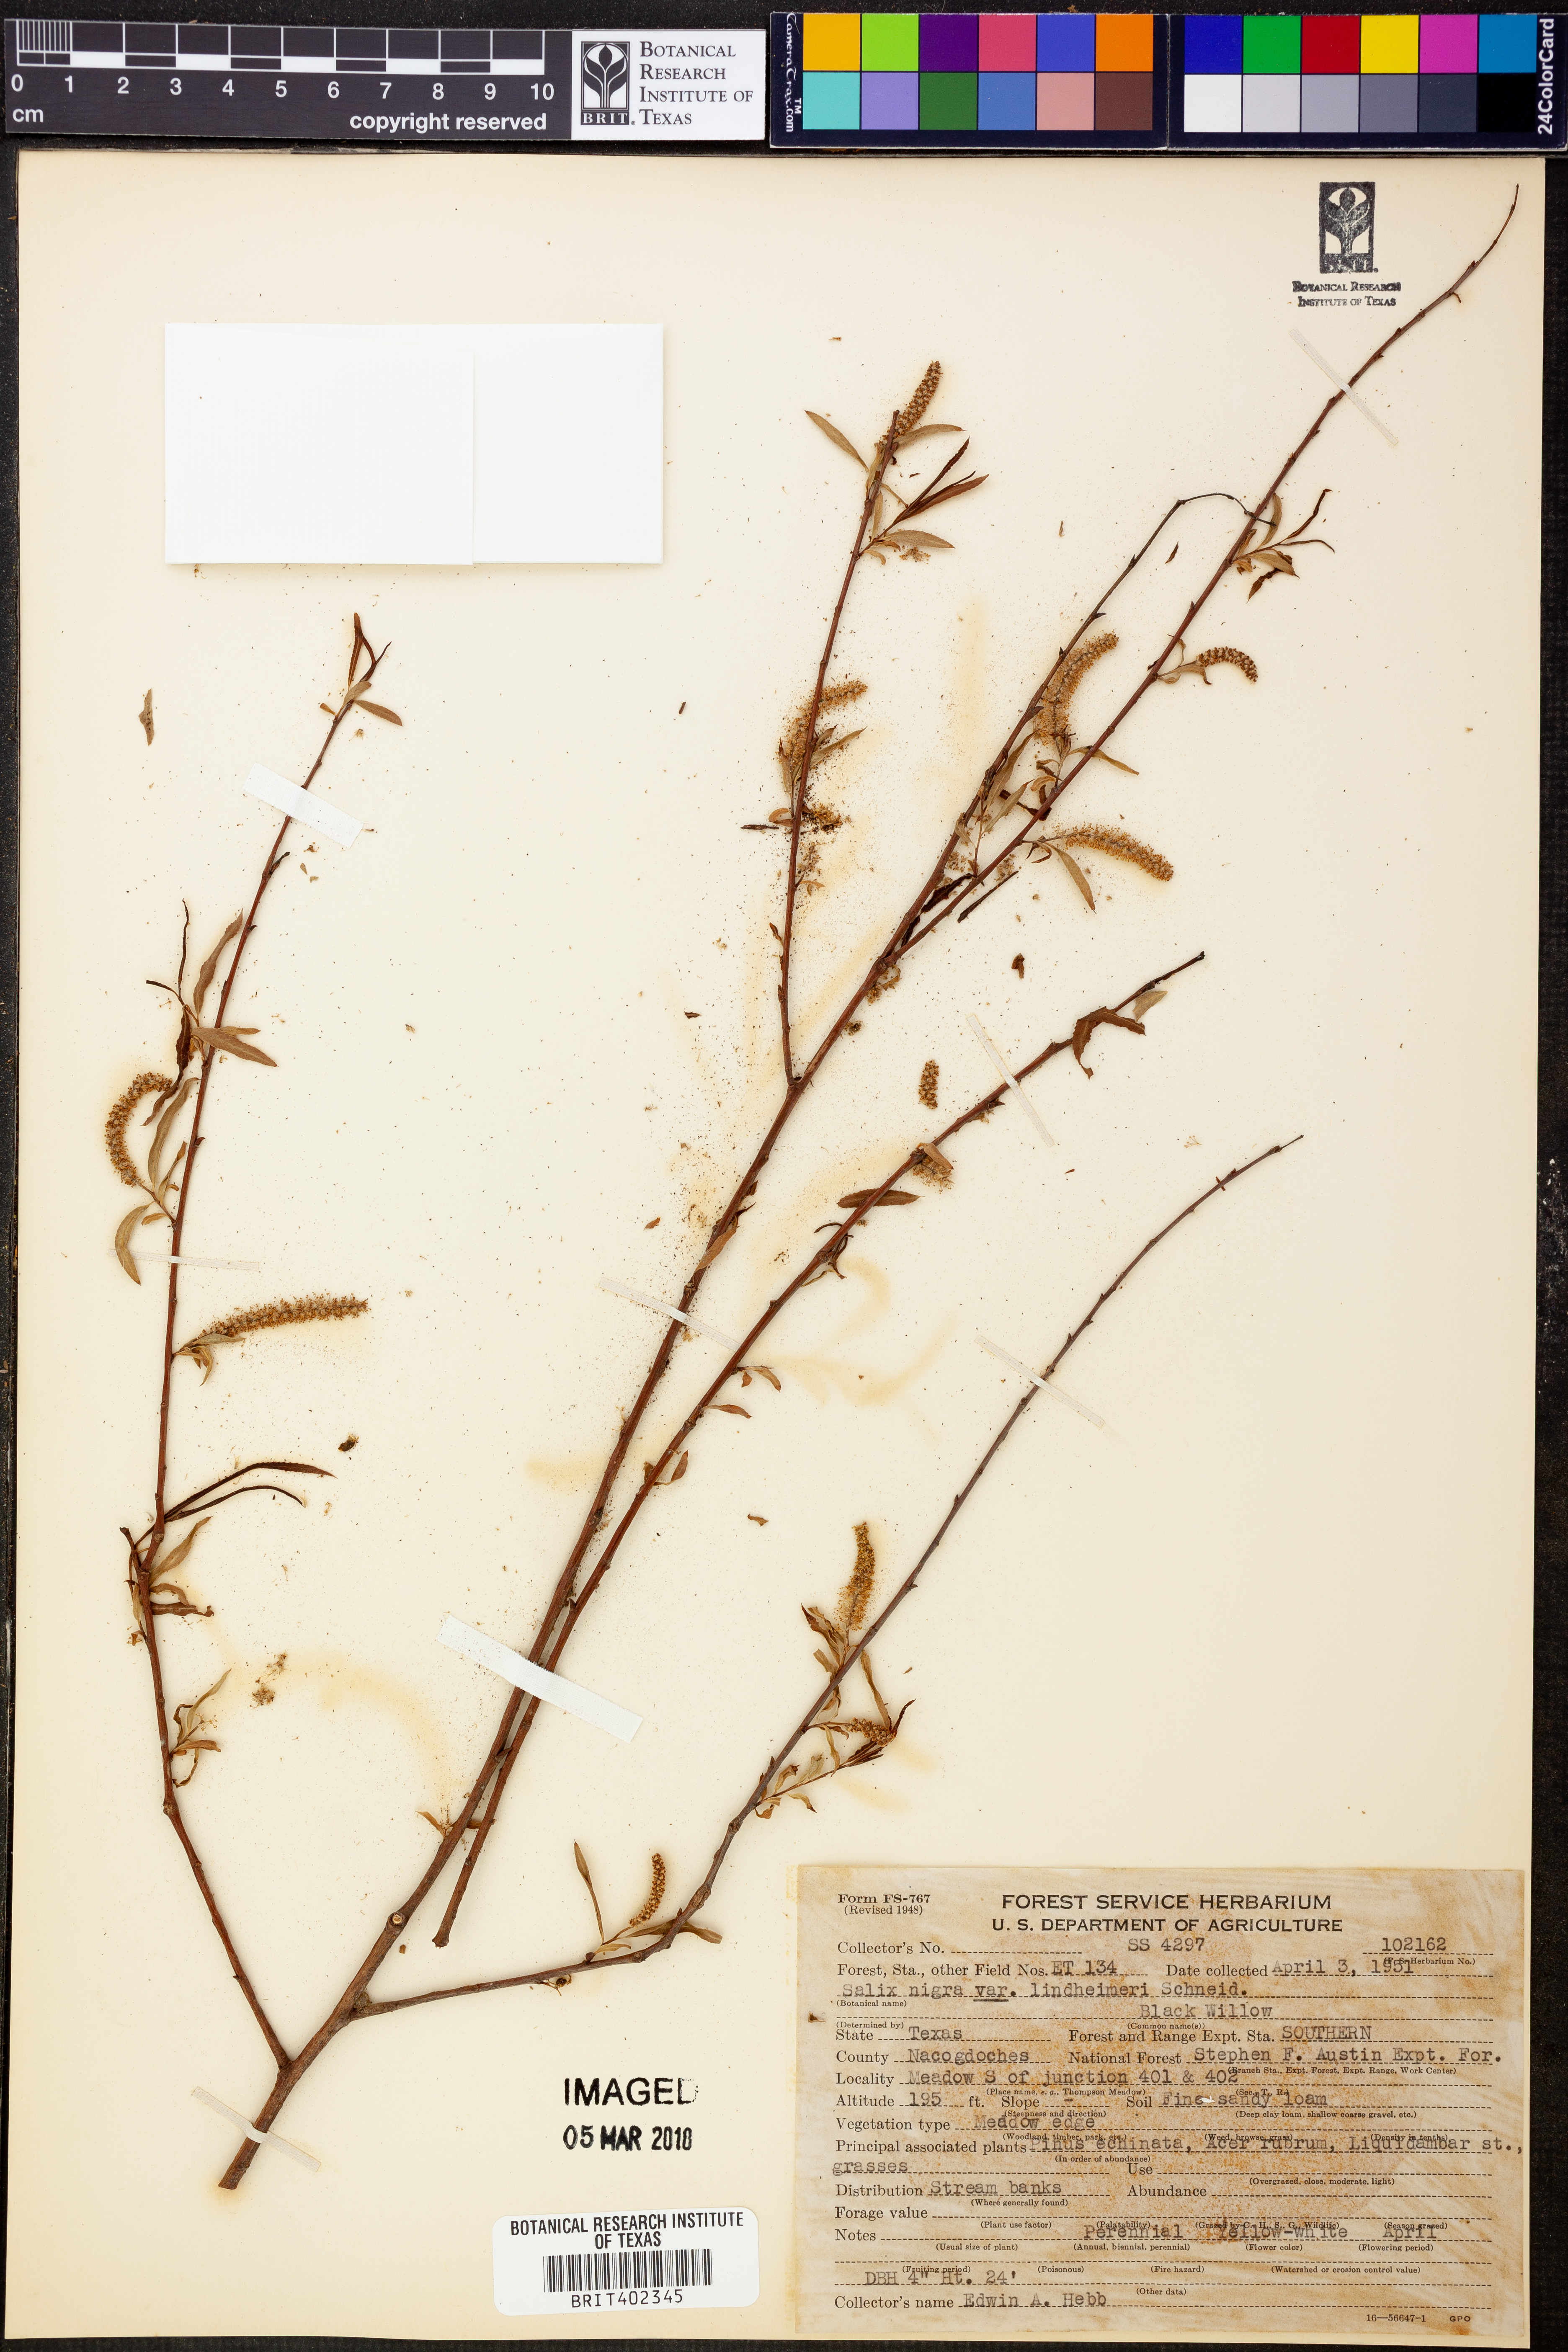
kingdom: Plantae
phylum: Tracheophyta
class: Magnoliopsida
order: Malpighiales
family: Salicaceae
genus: Salix
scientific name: Salix nigra
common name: Black willow
